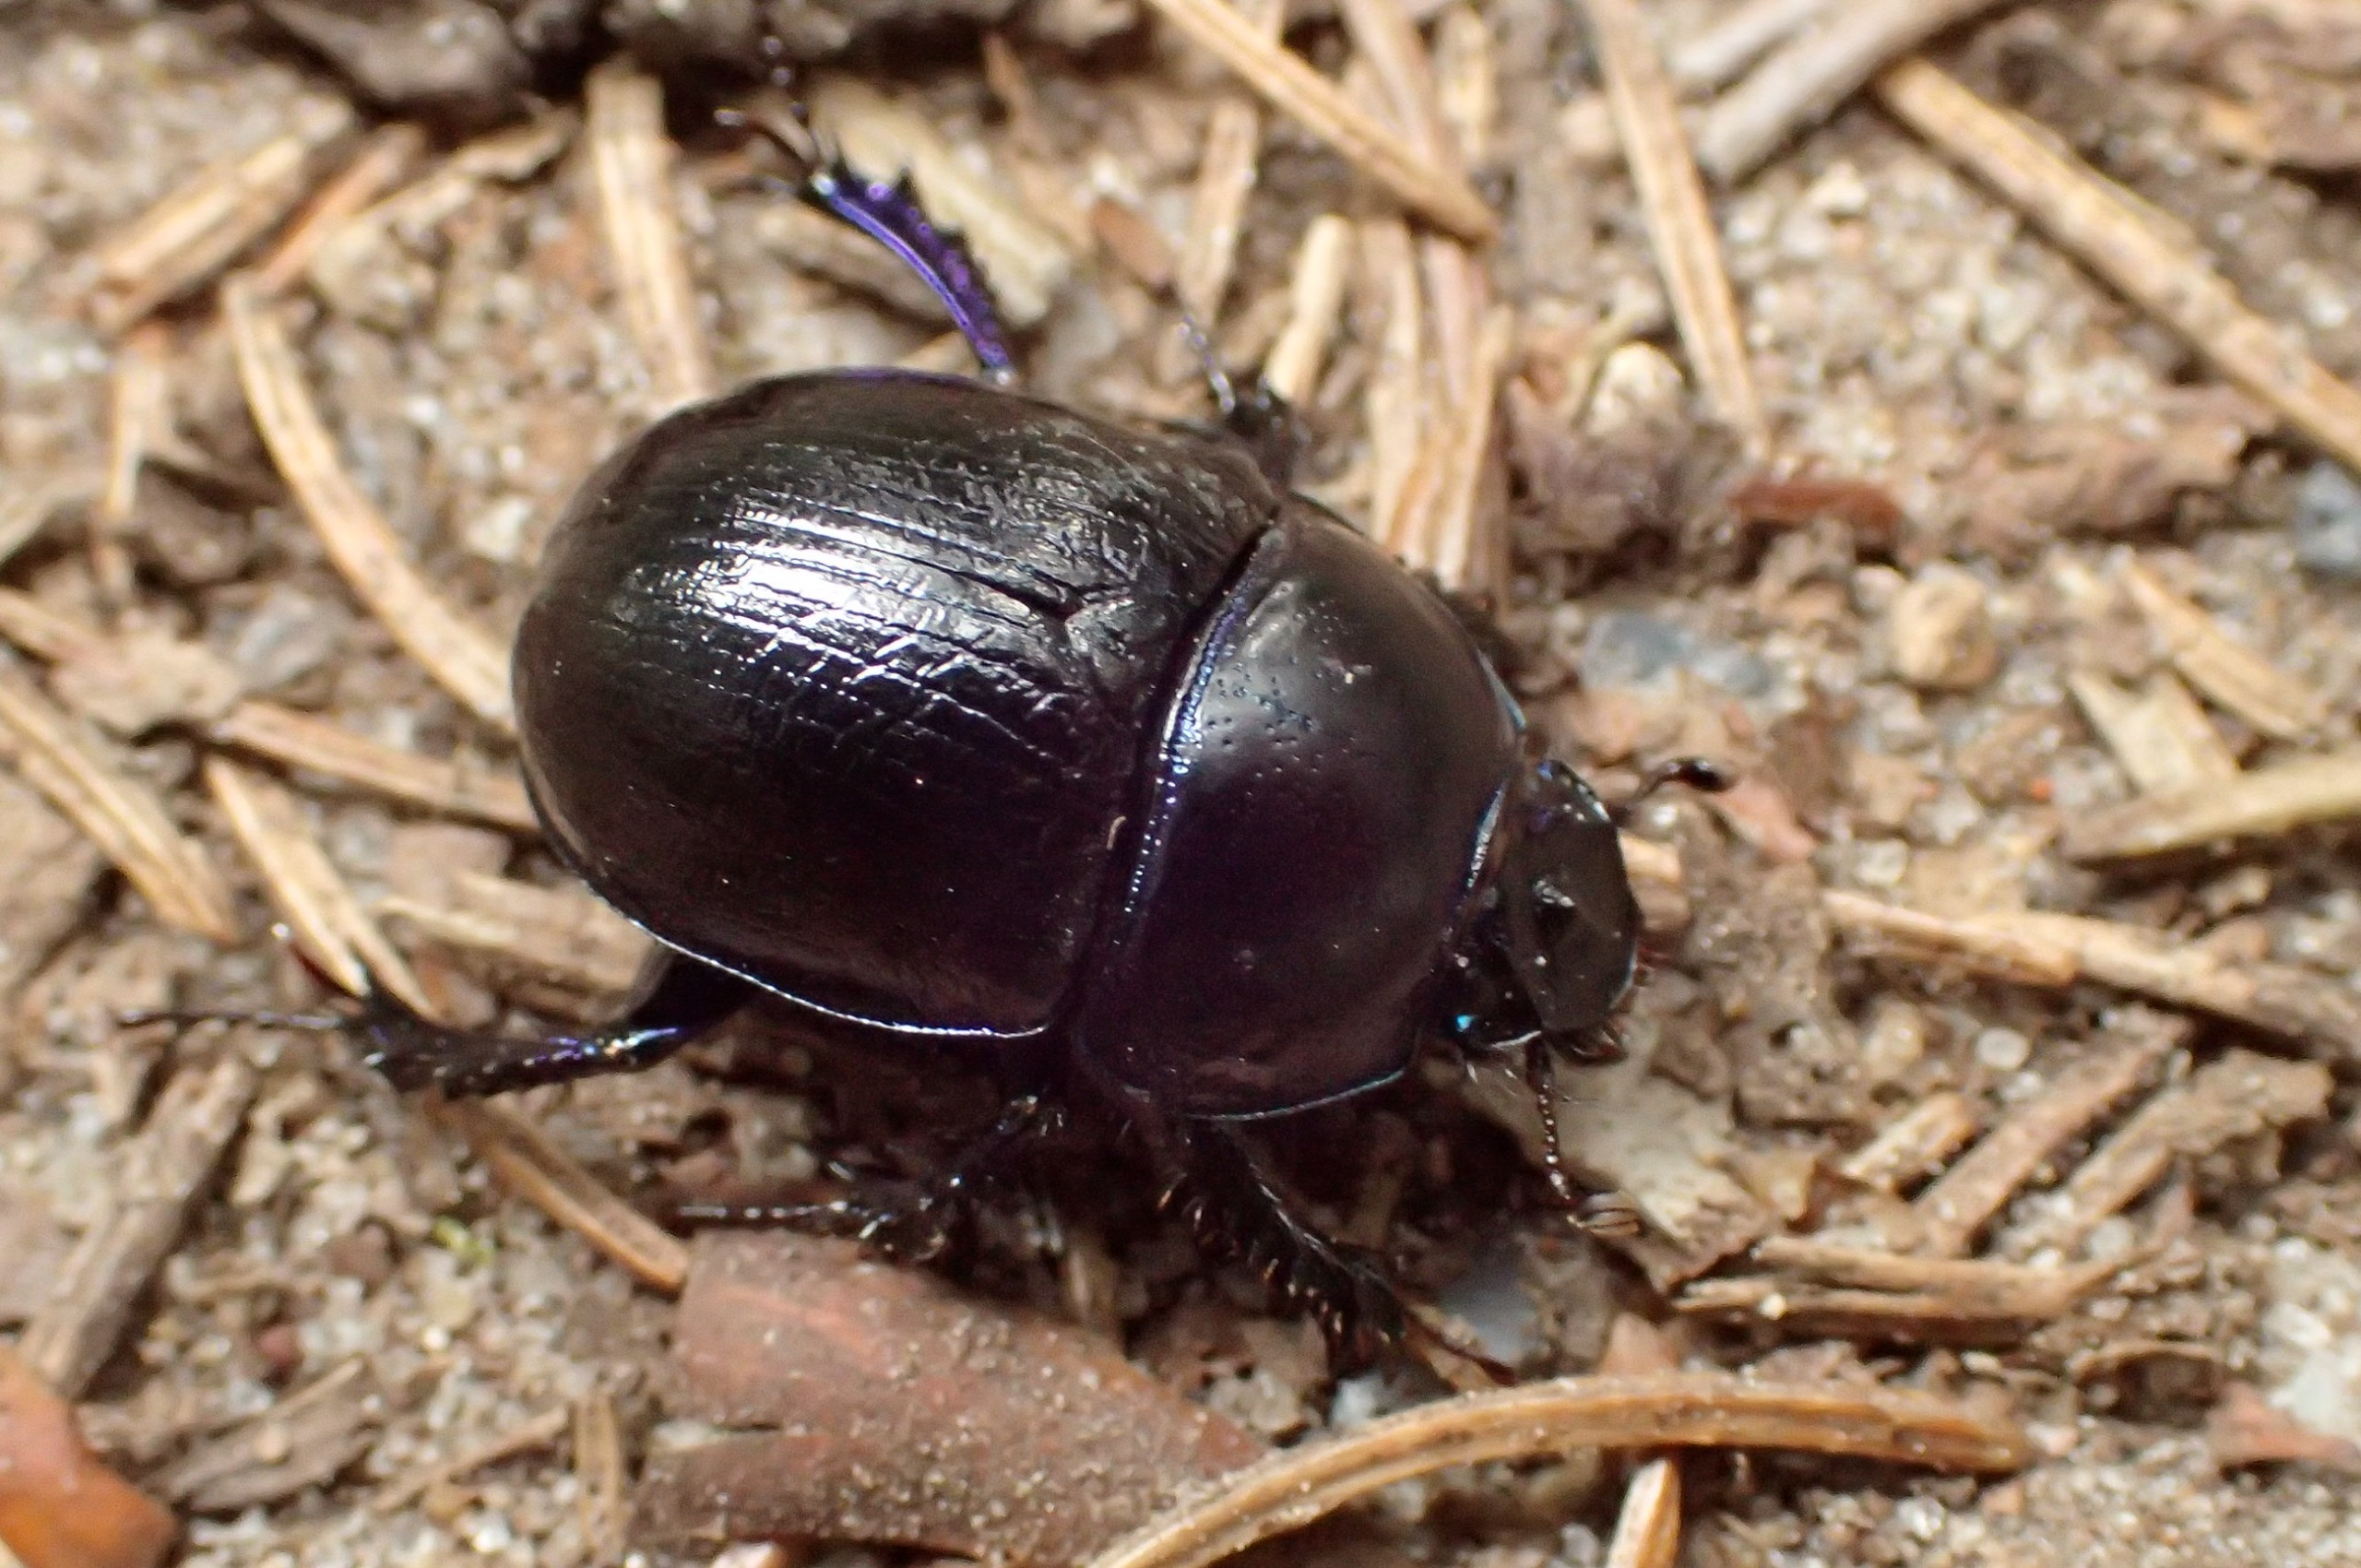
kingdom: Animalia
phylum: Arthropoda
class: Insecta
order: Coleoptera
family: Geotrupidae
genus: Anoplotrupes
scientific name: Anoplotrupes stercorosus
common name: Skovskarnbasse
